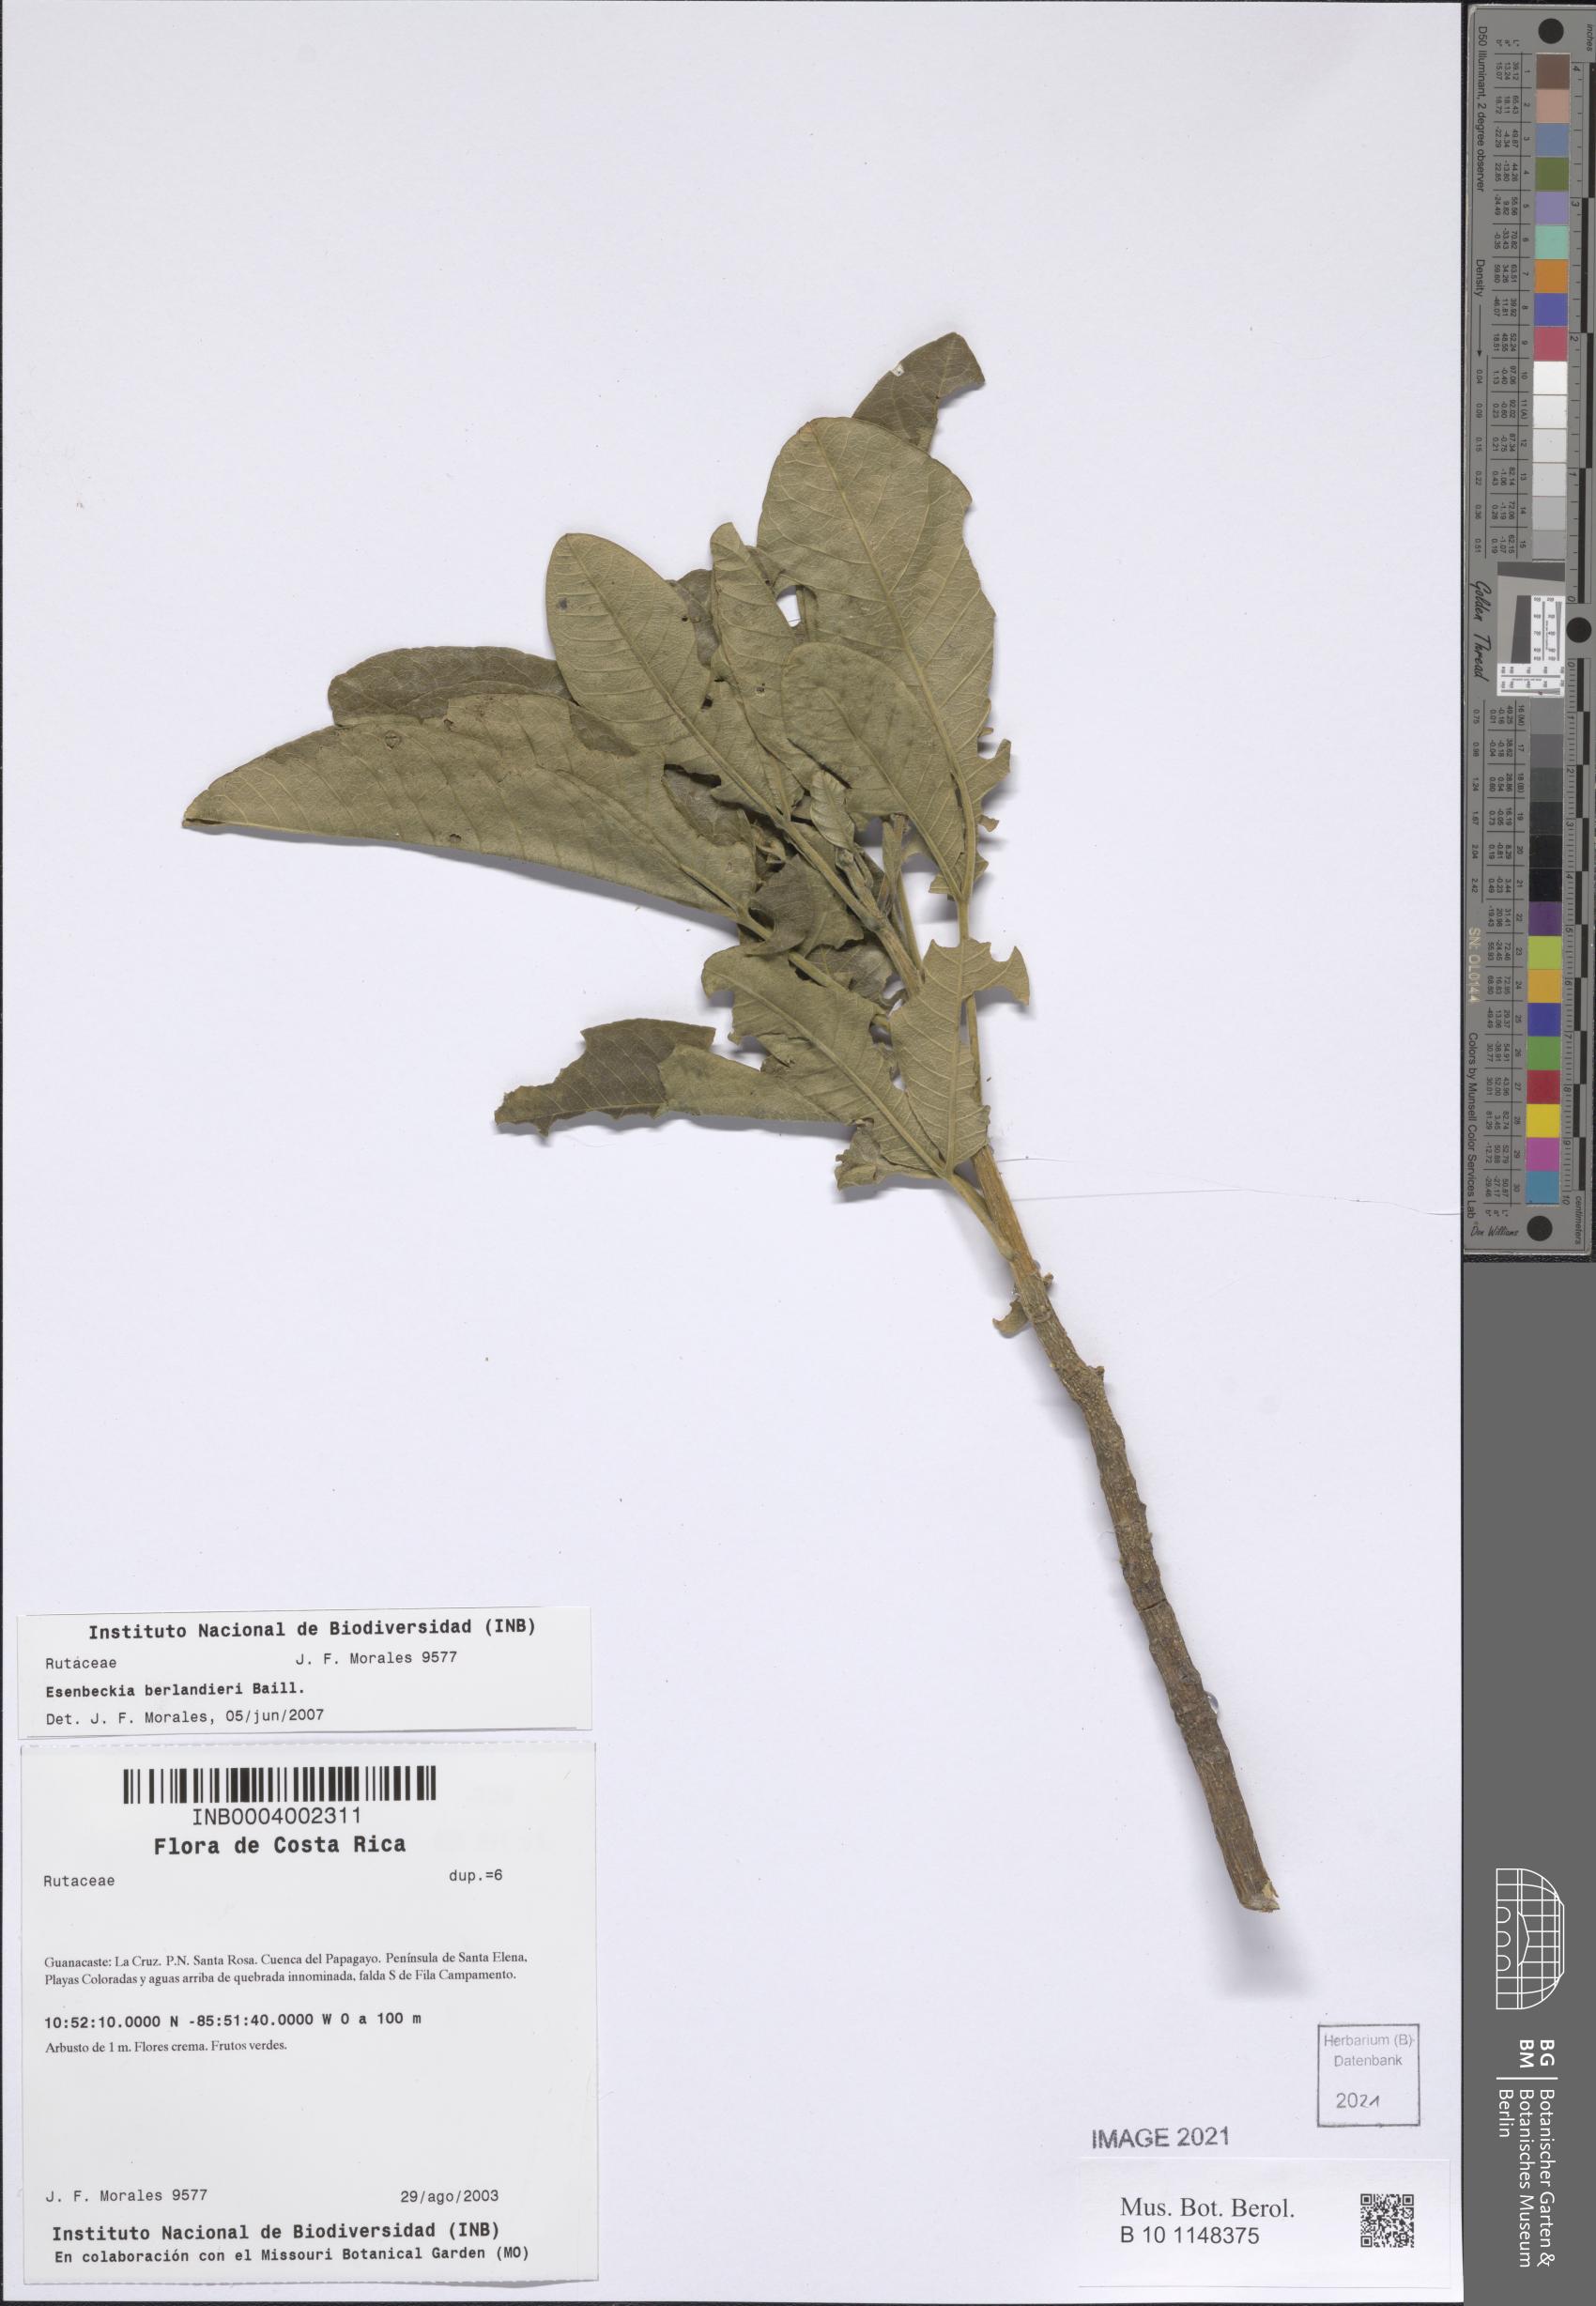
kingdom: Plantae
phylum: Tracheophyta
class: Magnoliopsida
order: Sapindales
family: Rutaceae
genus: Esenbeckia
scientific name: Esenbeckia berlandieri
